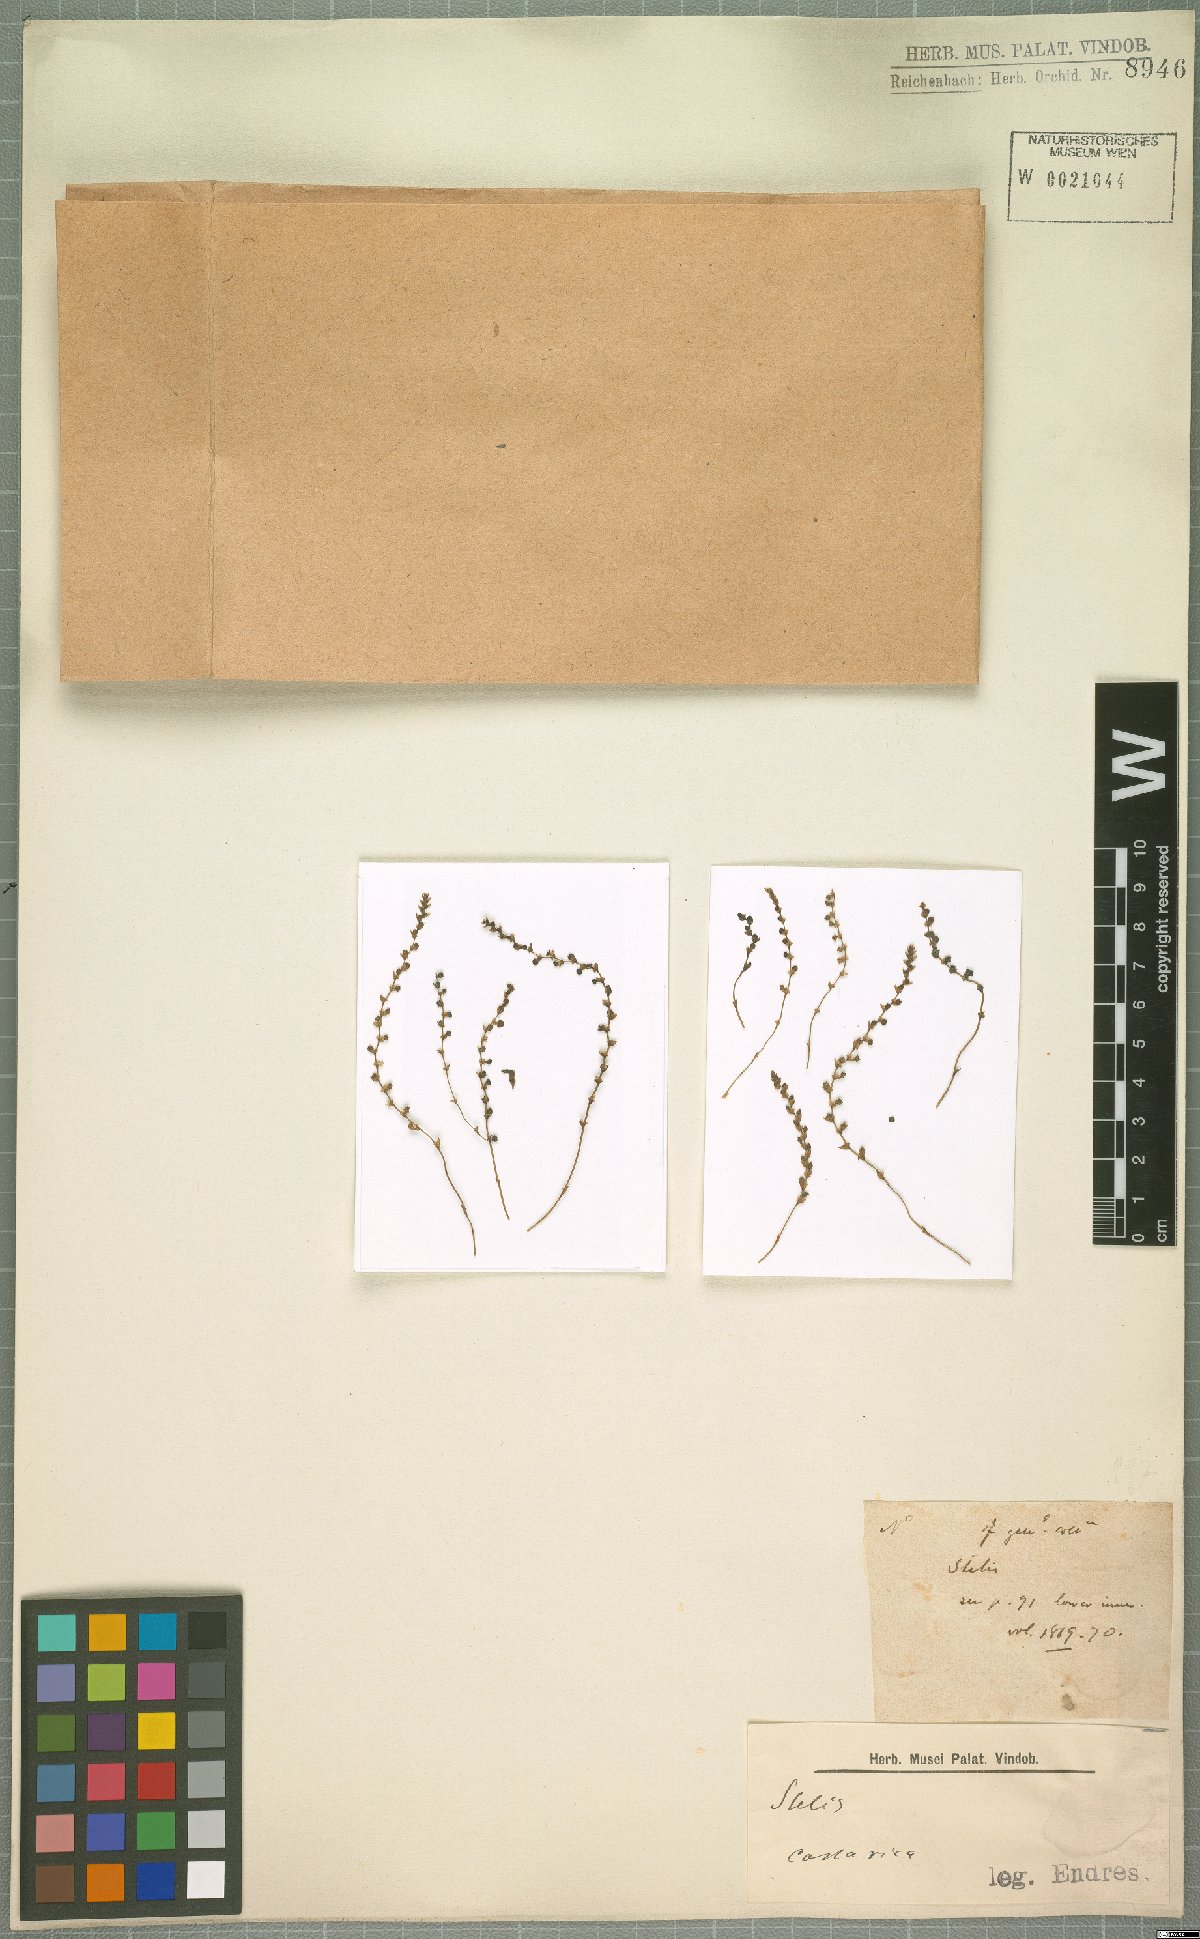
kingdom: Plantae
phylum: Tracheophyta
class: Liliopsida
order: Asparagales
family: Orchidaceae
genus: Stelis
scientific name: Stelis
